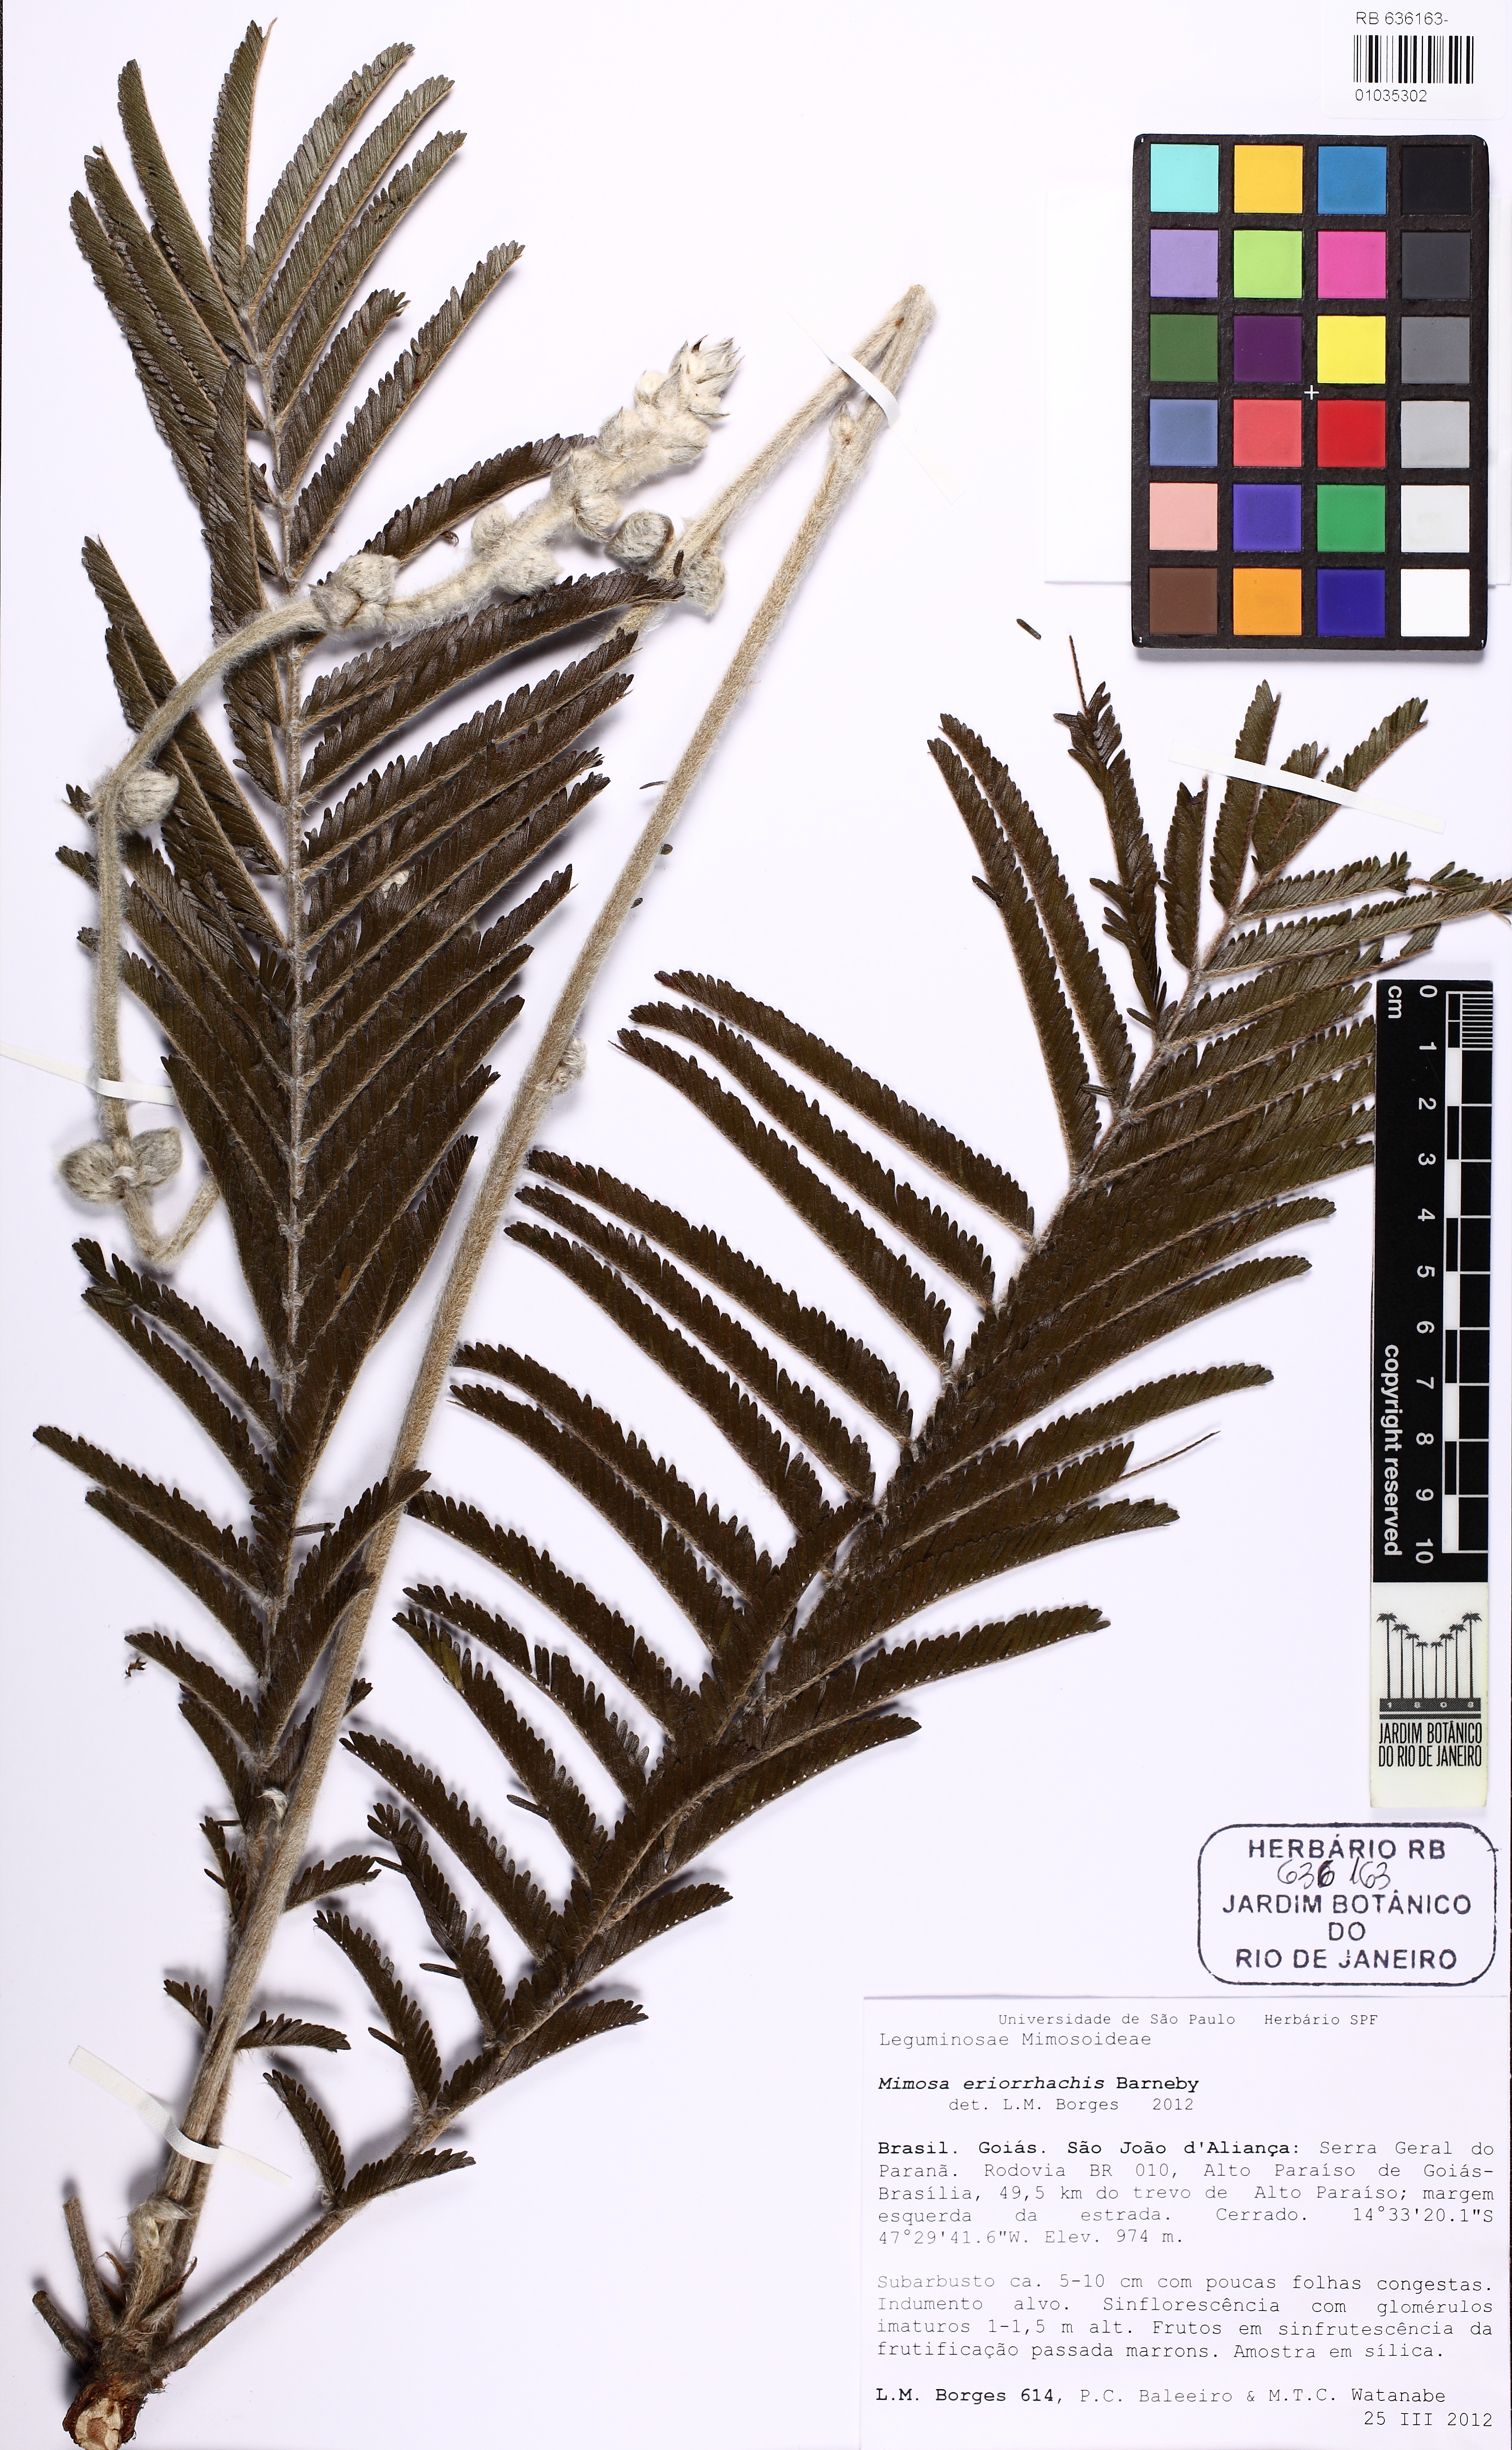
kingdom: Plantae
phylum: Tracheophyta
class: Magnoliopsida
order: Fabales
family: Fabaceae
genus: Mimosa
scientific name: Mimosa eriorrhachis
